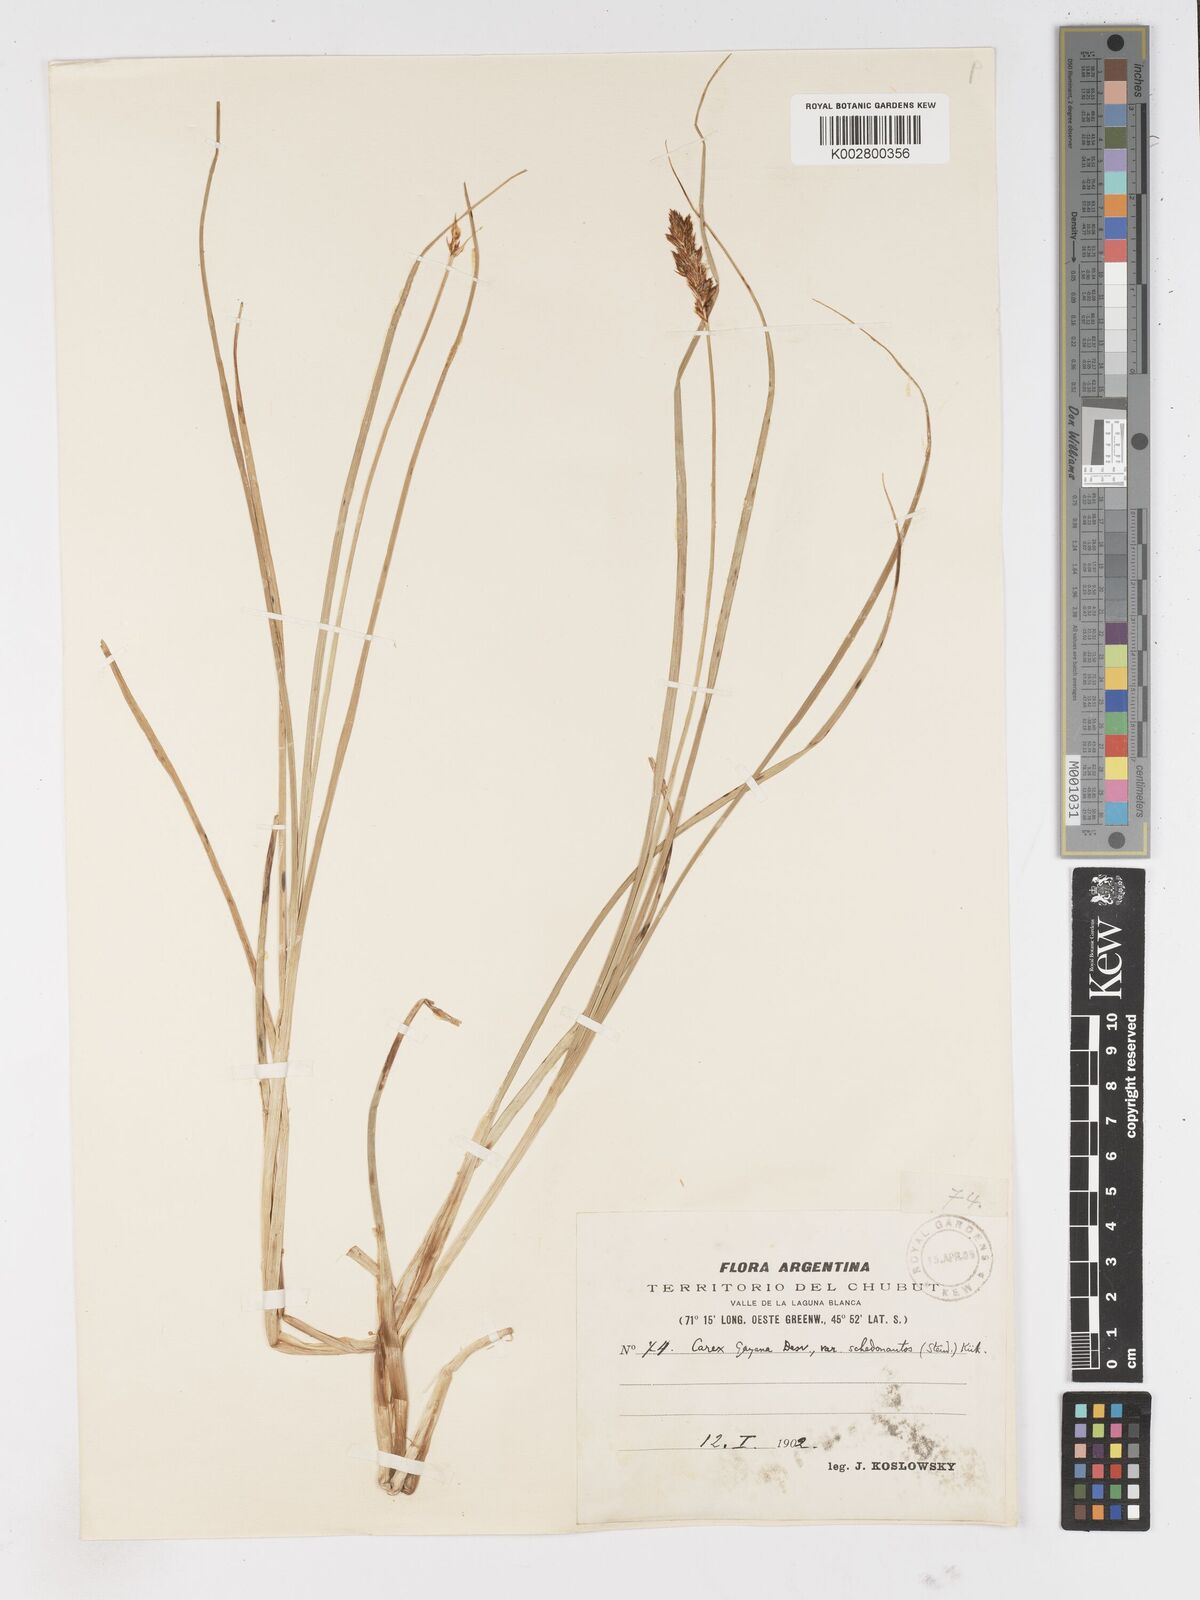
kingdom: Plantae
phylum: Tracheophyta
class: Liliopsida
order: Poales
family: Cyperaceae
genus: Carex
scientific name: Carex gayana
